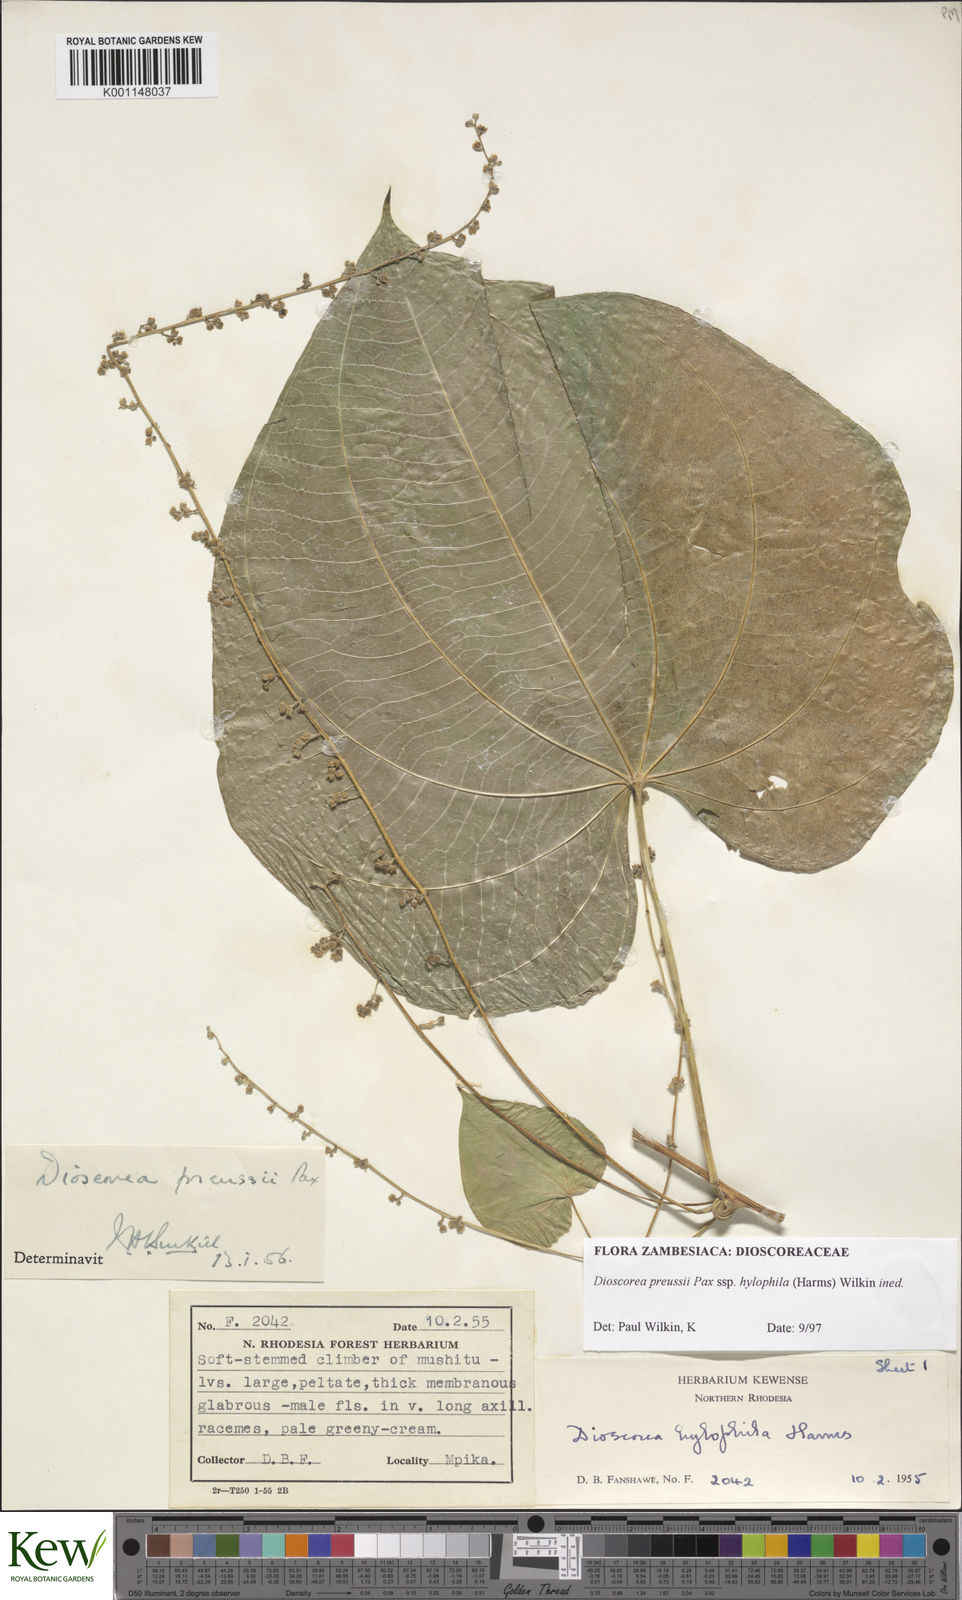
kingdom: Plantae
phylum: Tracheophyta
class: Liliopsida
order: Dioscoreales
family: Dioscoreaceae
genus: Dioscorea
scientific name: Dioscorea preussii
